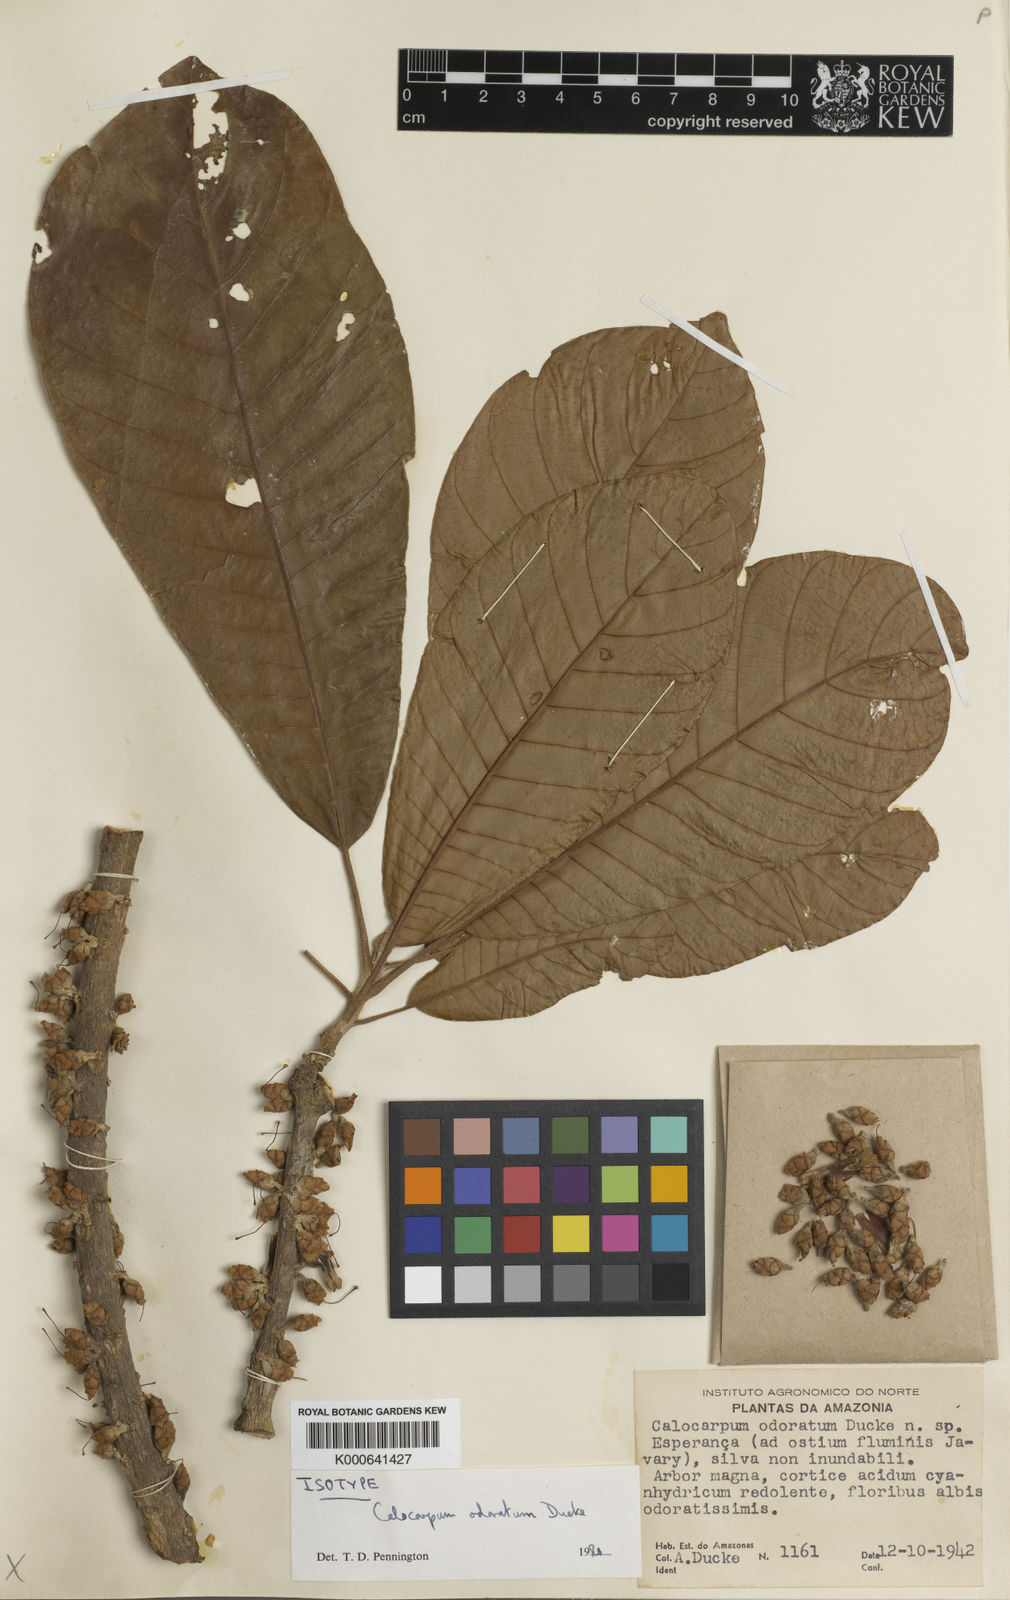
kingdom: Plantae
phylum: Tracheophyta
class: Magnoliopsida
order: Ericales
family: Sapotaceae
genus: Pouteria
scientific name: Pouteria polysepala
